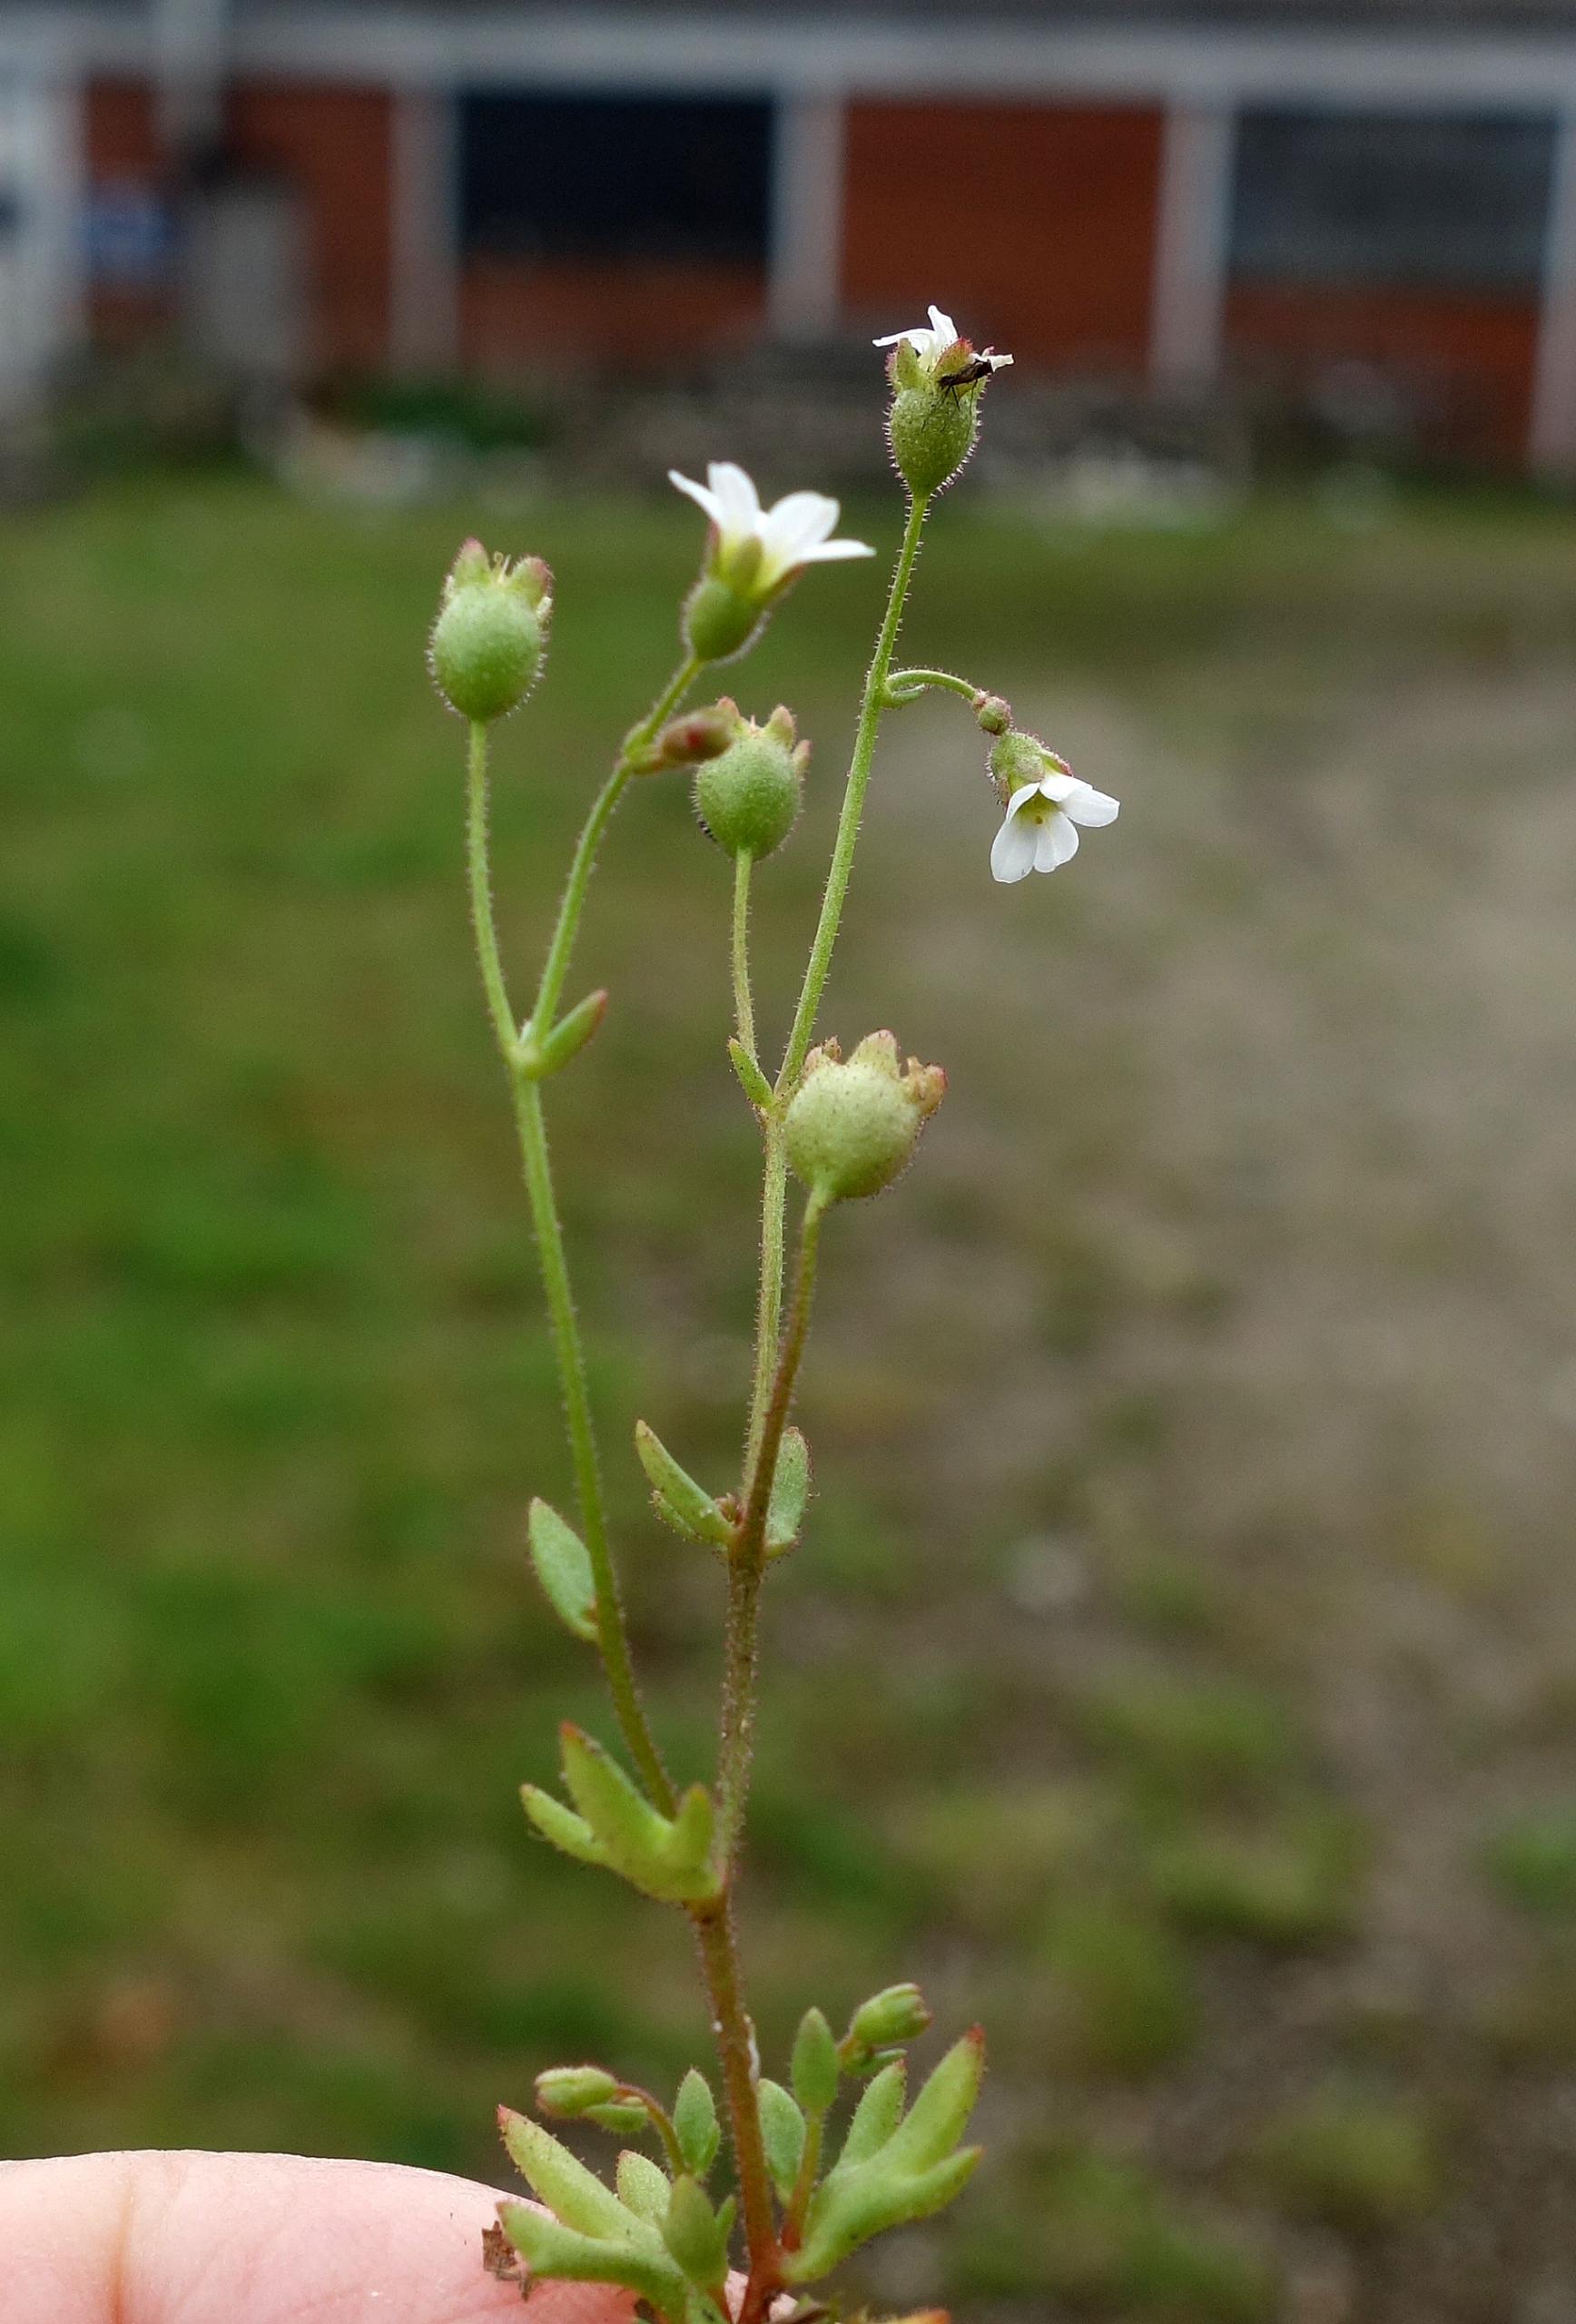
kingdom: Plantae
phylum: Tracheophyta
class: Magnoliopsida
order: Saxifragales
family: Saxifragaceae
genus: Saxifraga
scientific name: Saxifraga tridactylites
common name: Trekløft-stenbræk
